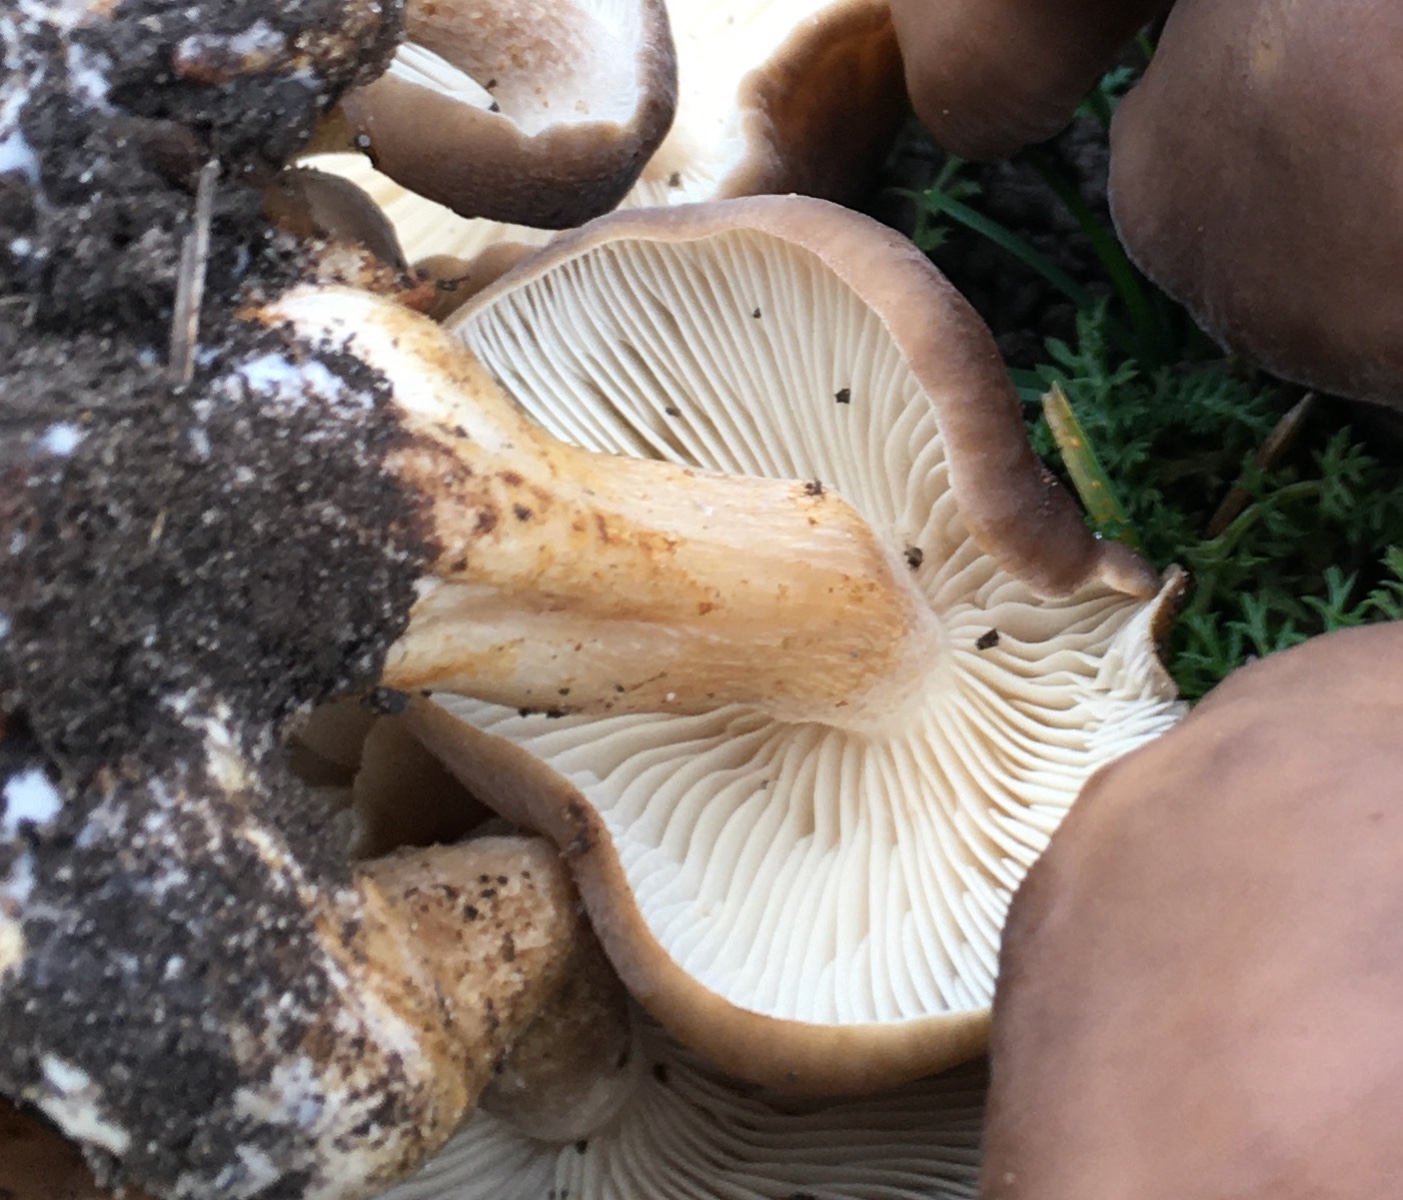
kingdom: Fungi
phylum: Basidiomycota
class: Agaricomycetes
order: Agaricales
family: Lyophyllaceae
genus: Lyophyllum
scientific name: Lyophyllum decastes
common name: Clustered domecap
